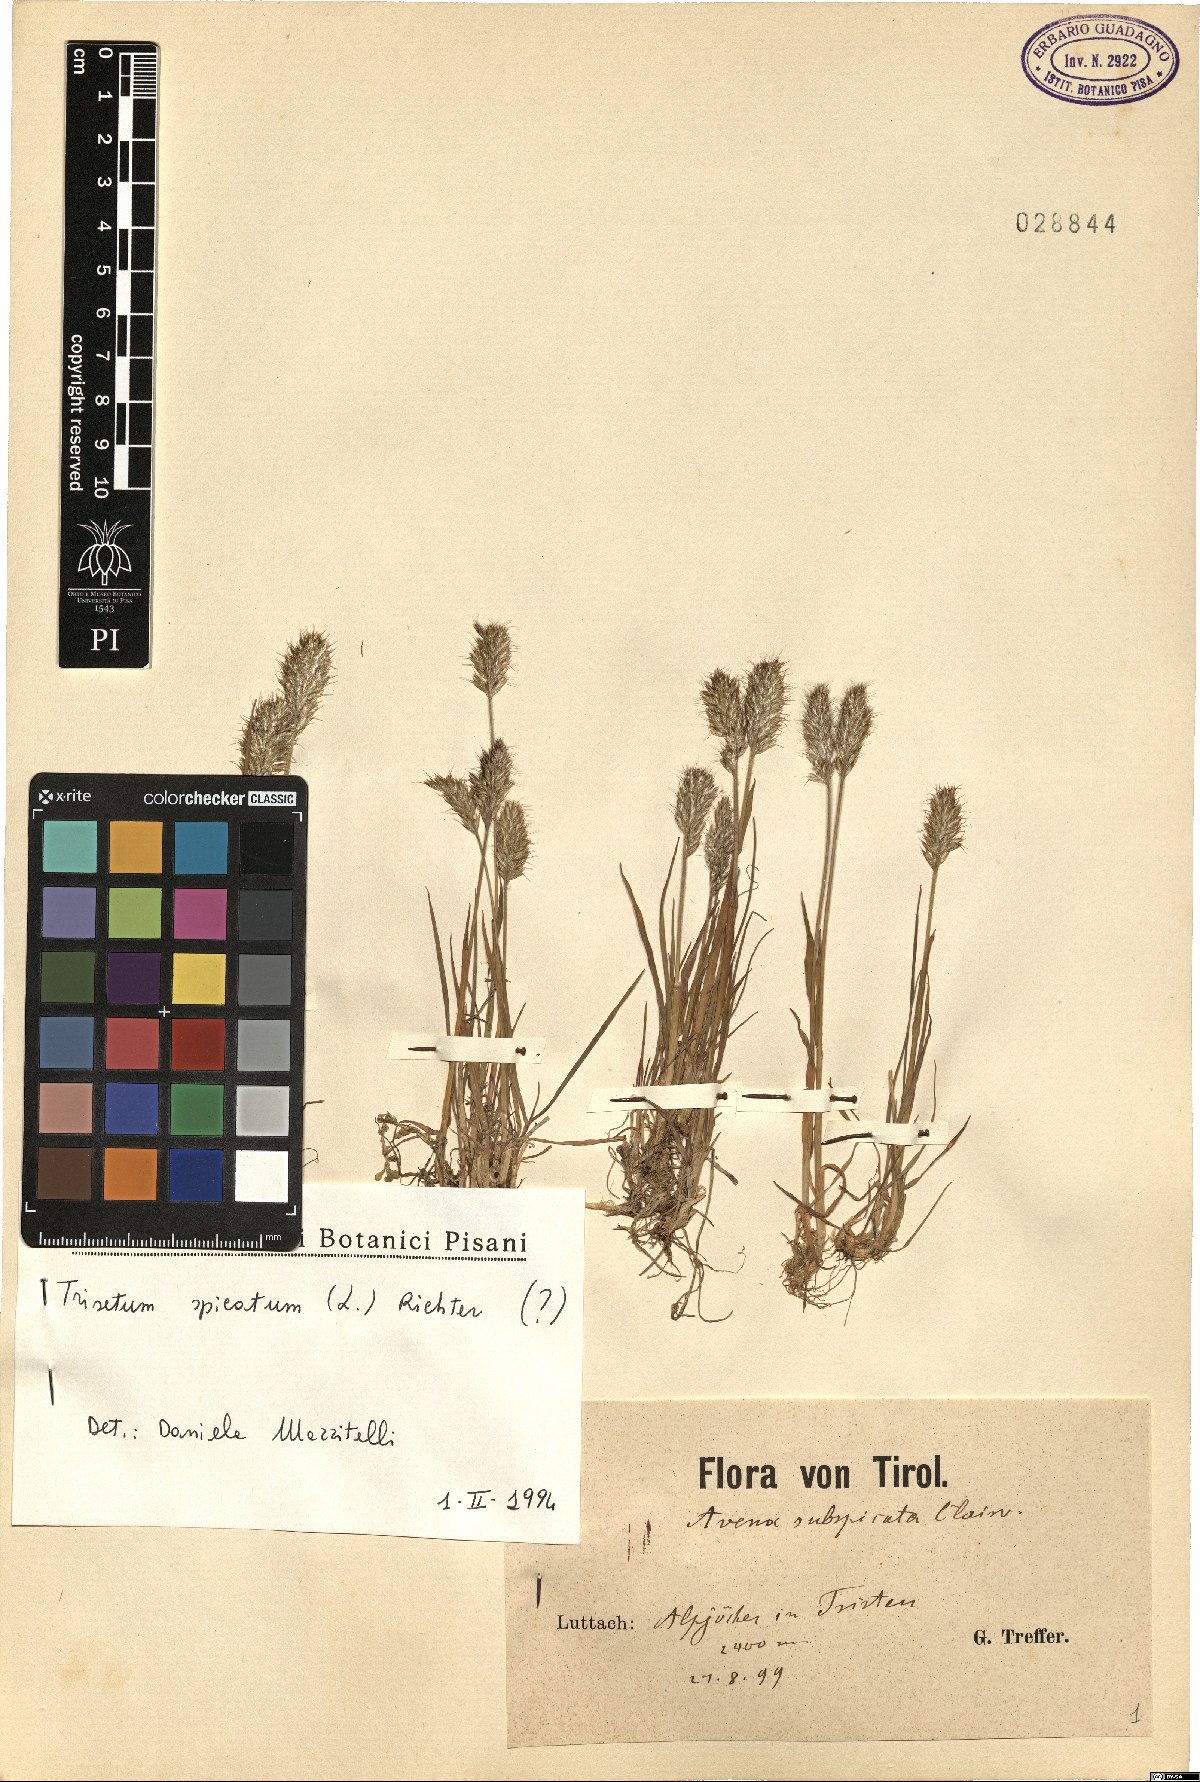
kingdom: Plantae
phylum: Tracheophyta
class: Liliopsida
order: Poales
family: Poaceae
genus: Koeleria
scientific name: Koeleria spicata
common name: Mountain trisetum
